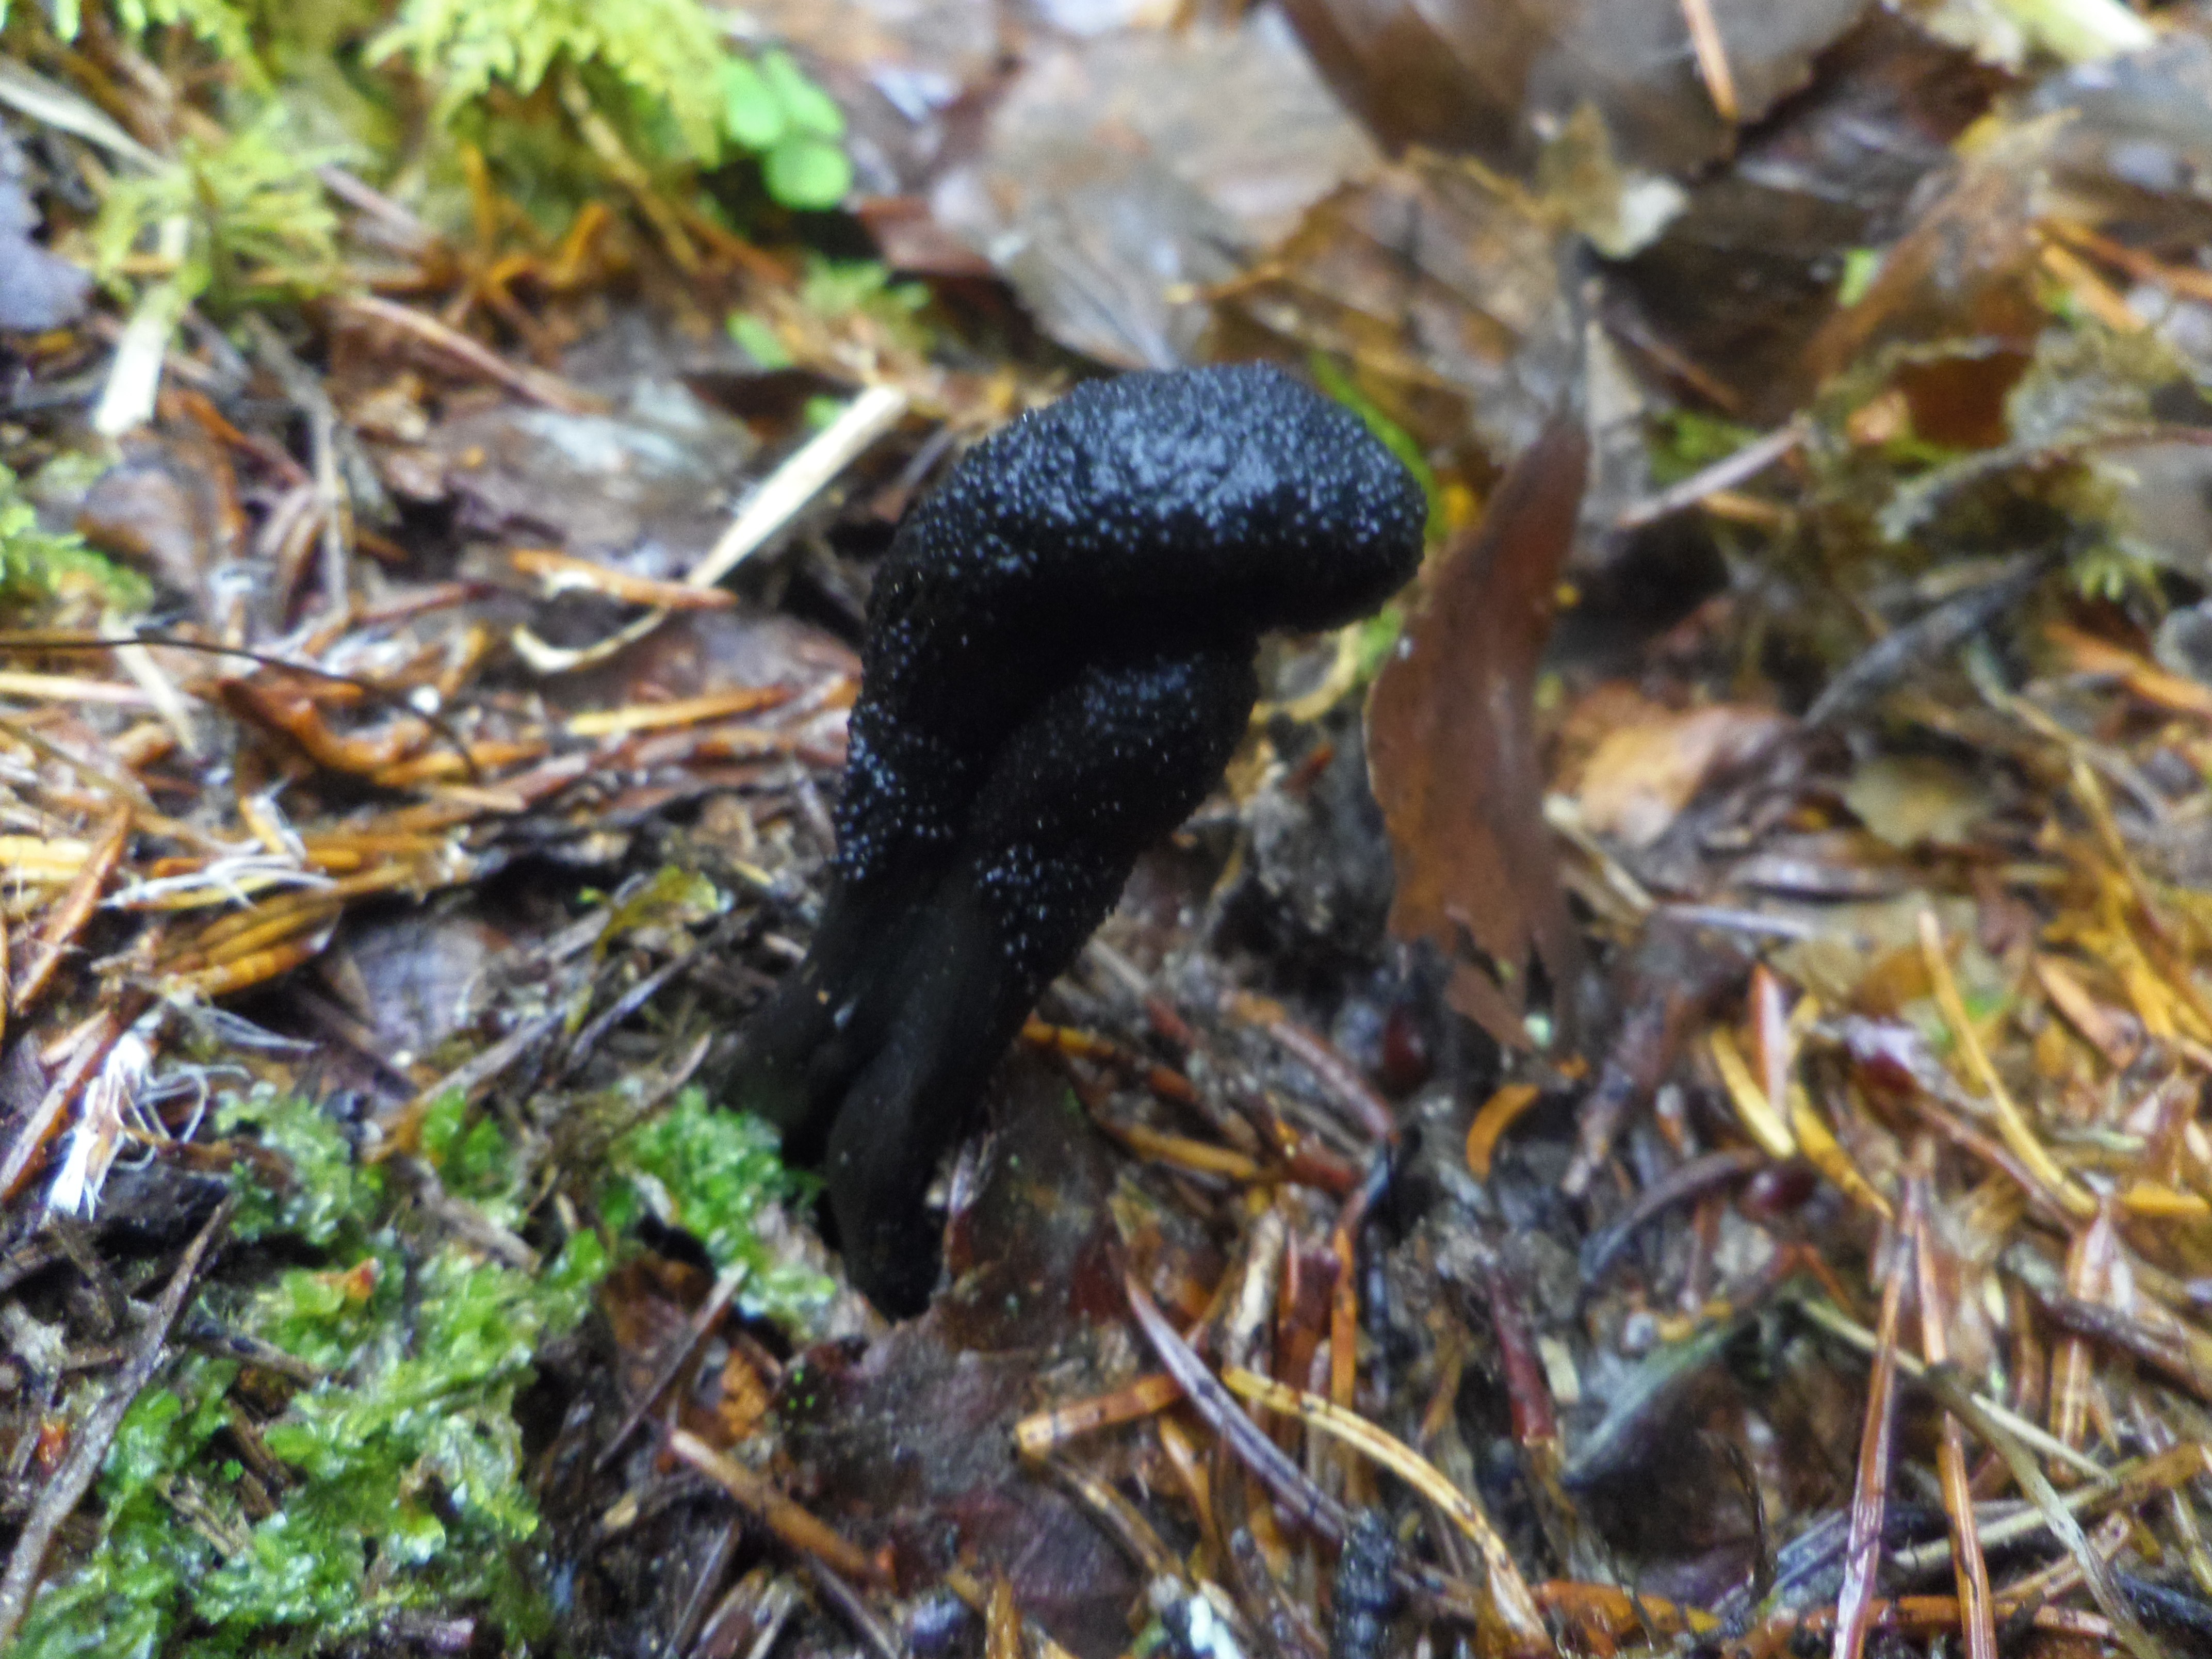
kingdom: Fungi
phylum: Ascomycota
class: Sordariomycetes
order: Hypocreales
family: Ophiocordycipitaceae
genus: Tolypocladium
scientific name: Tolypocladium ophioglossoides
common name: Snaketongue truffleclub
